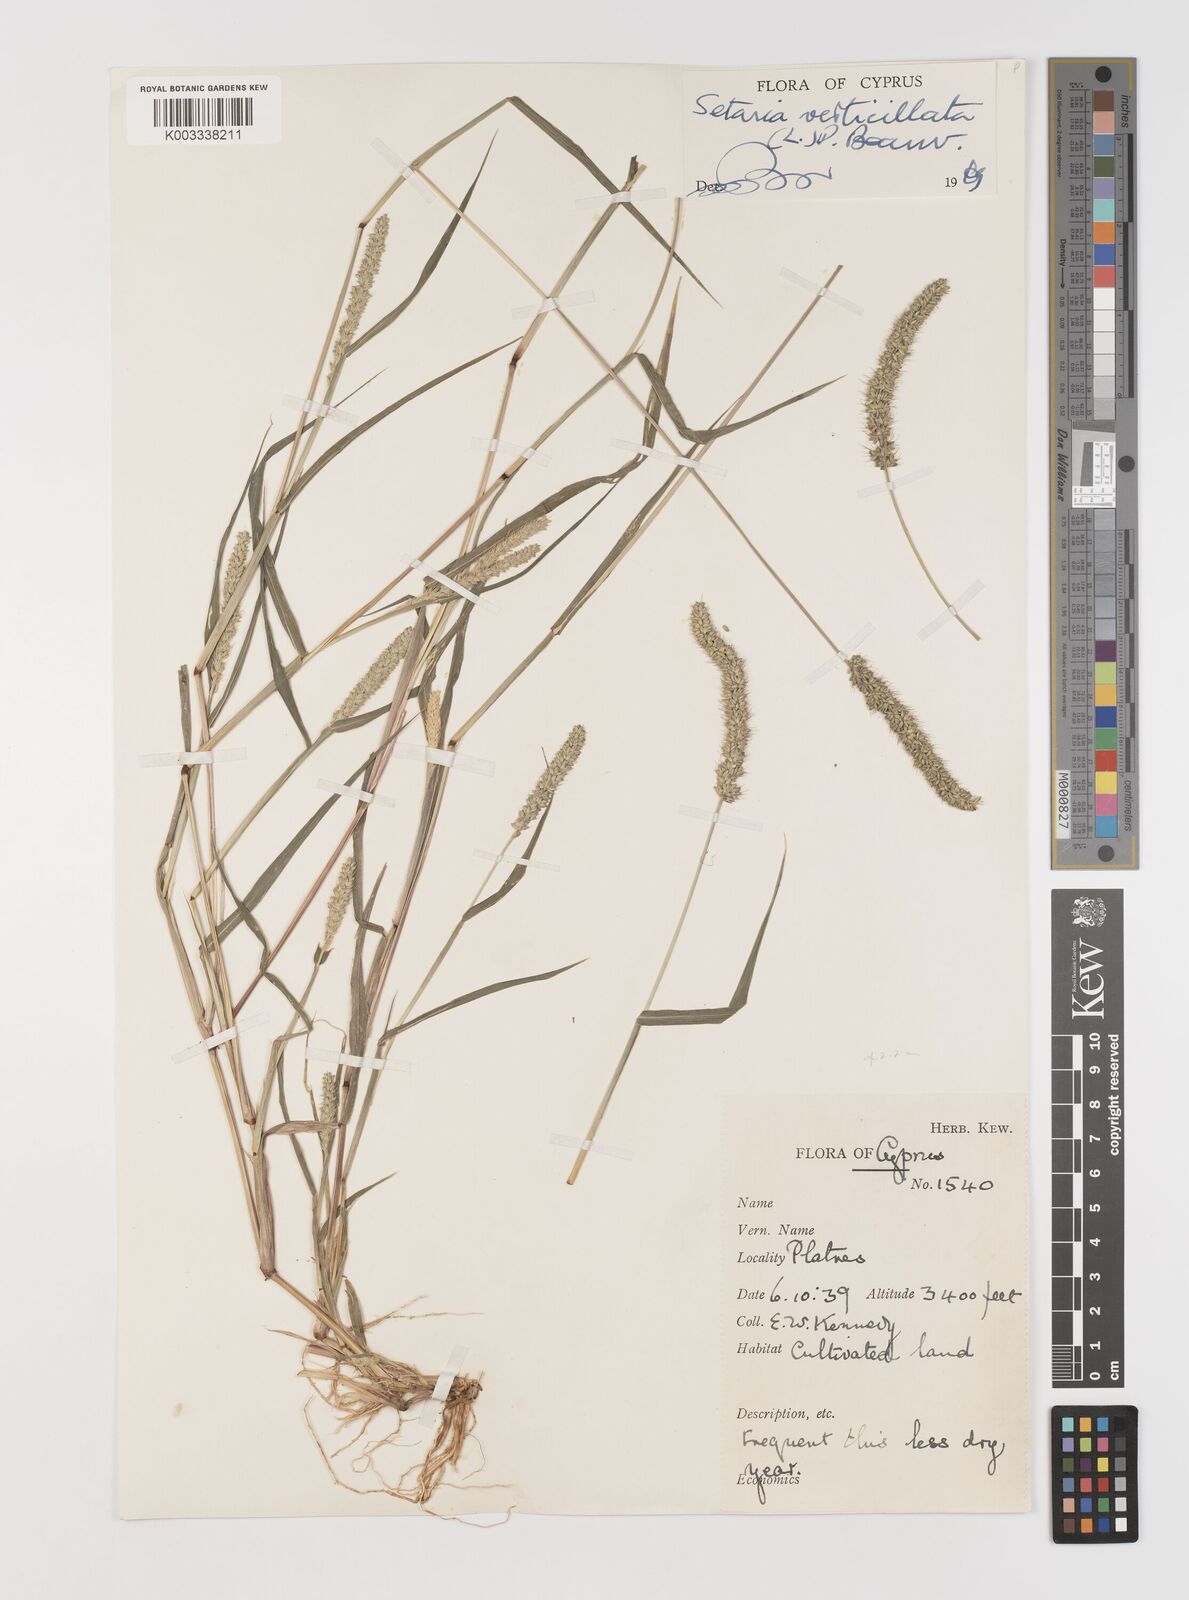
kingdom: Plantae
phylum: Tracheophyta
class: Liliopsida
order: Poales
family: Poaceae
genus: Setaria
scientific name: Setaria verticillata
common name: Hooked bristlegrass
